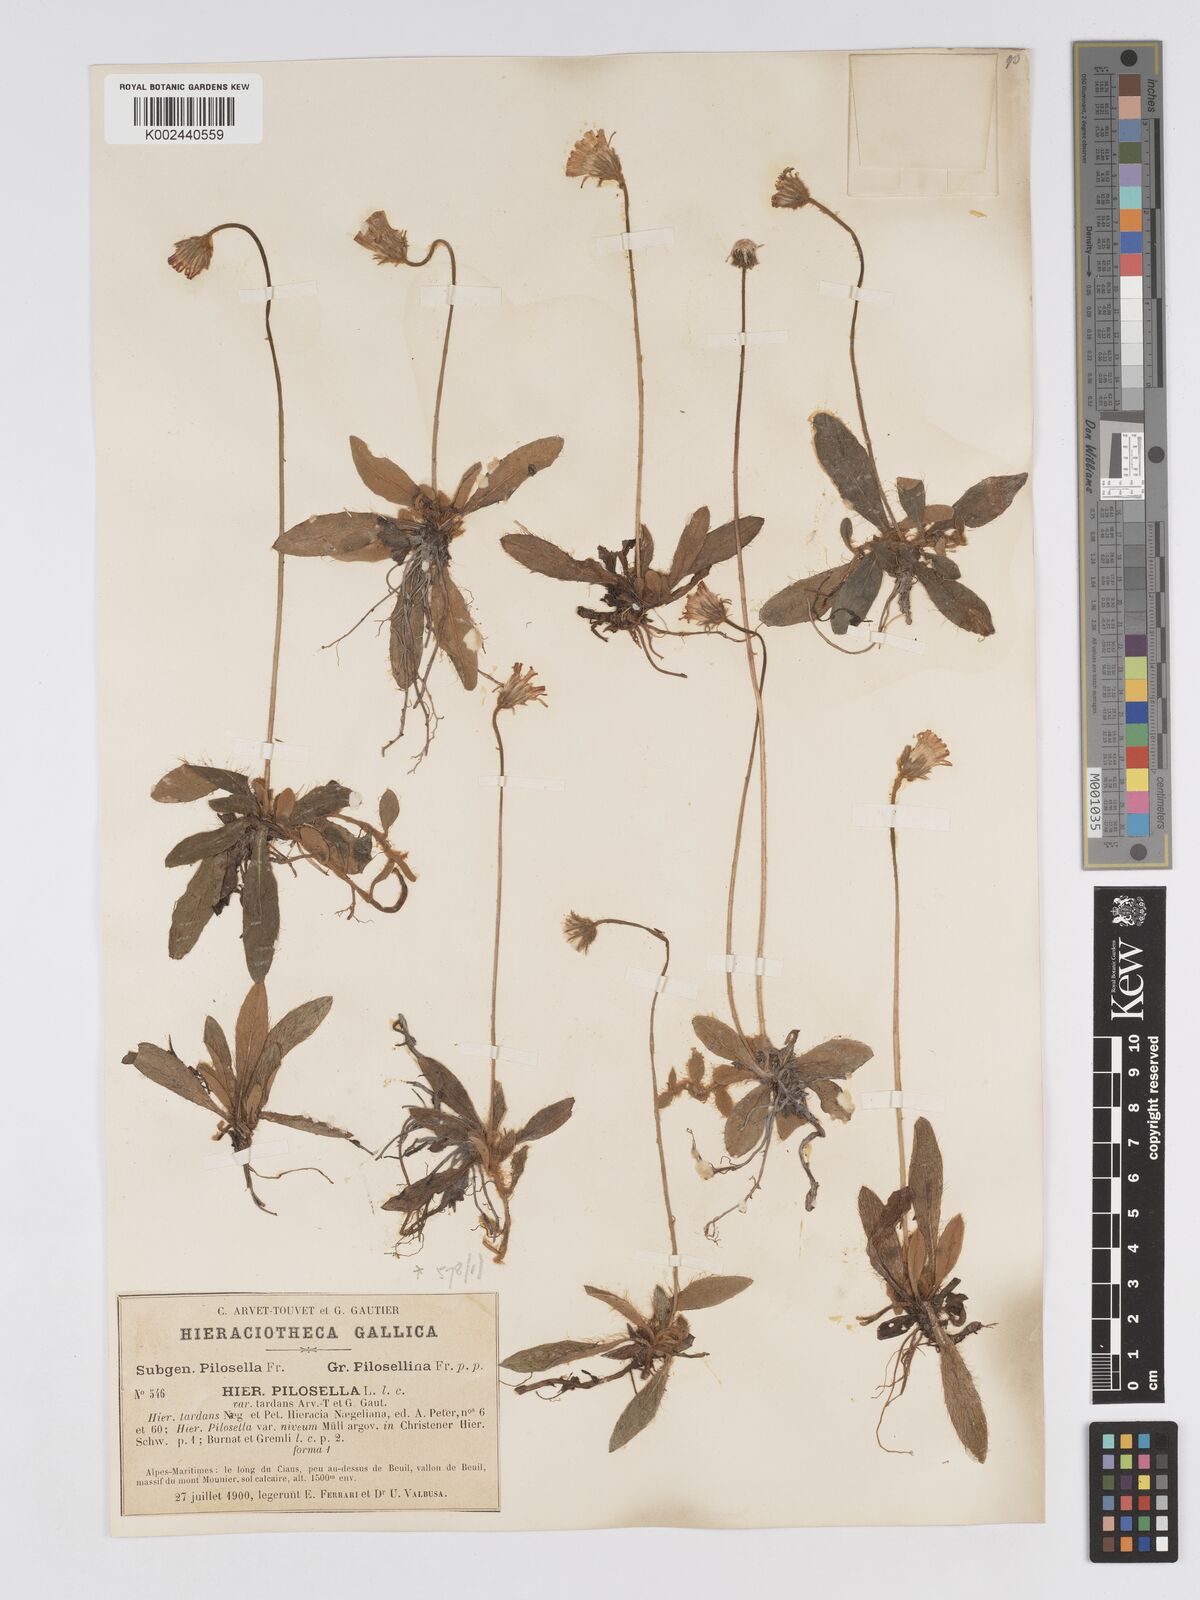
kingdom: Plantae
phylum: Tracheophyta
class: Magnoliopsida
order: Asterales
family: Asteraceae
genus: Pilosella
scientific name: Pilosella tardans
